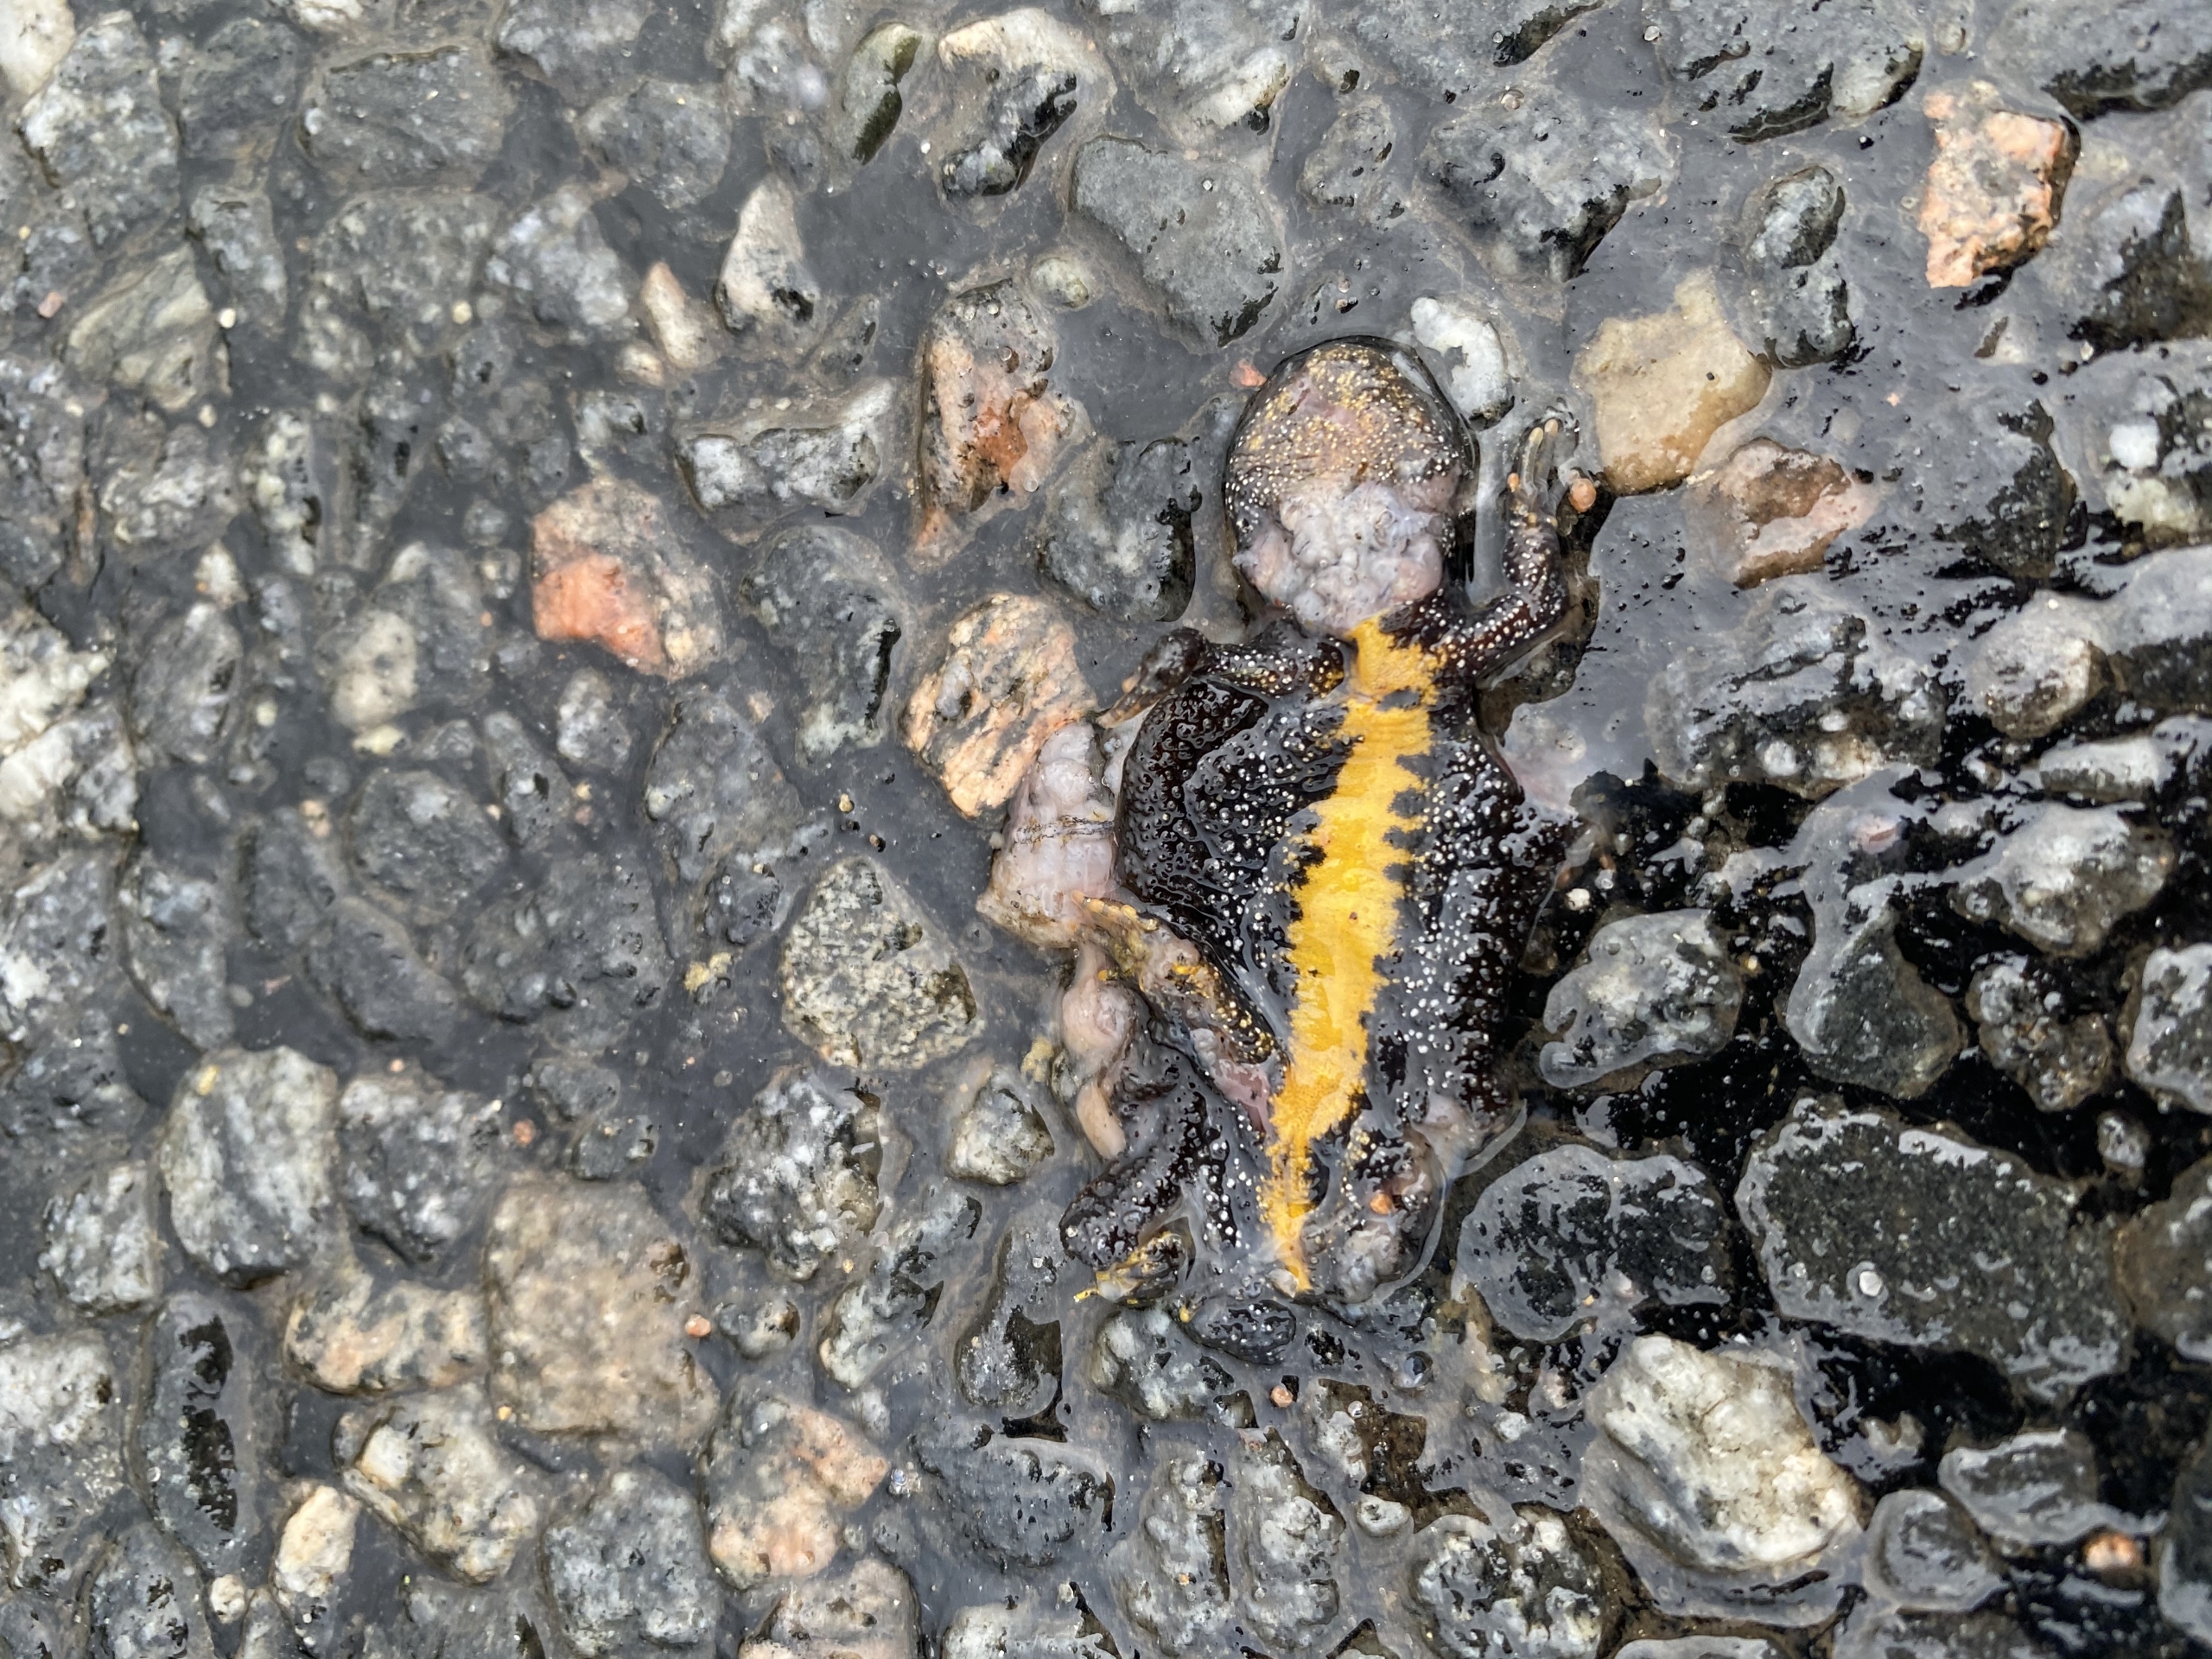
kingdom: Animalia
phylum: Chordata
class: Amphibia
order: Caudata
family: Salamandridae
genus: Triturus
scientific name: Triturus cristatus
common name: Stor vandsalamander
